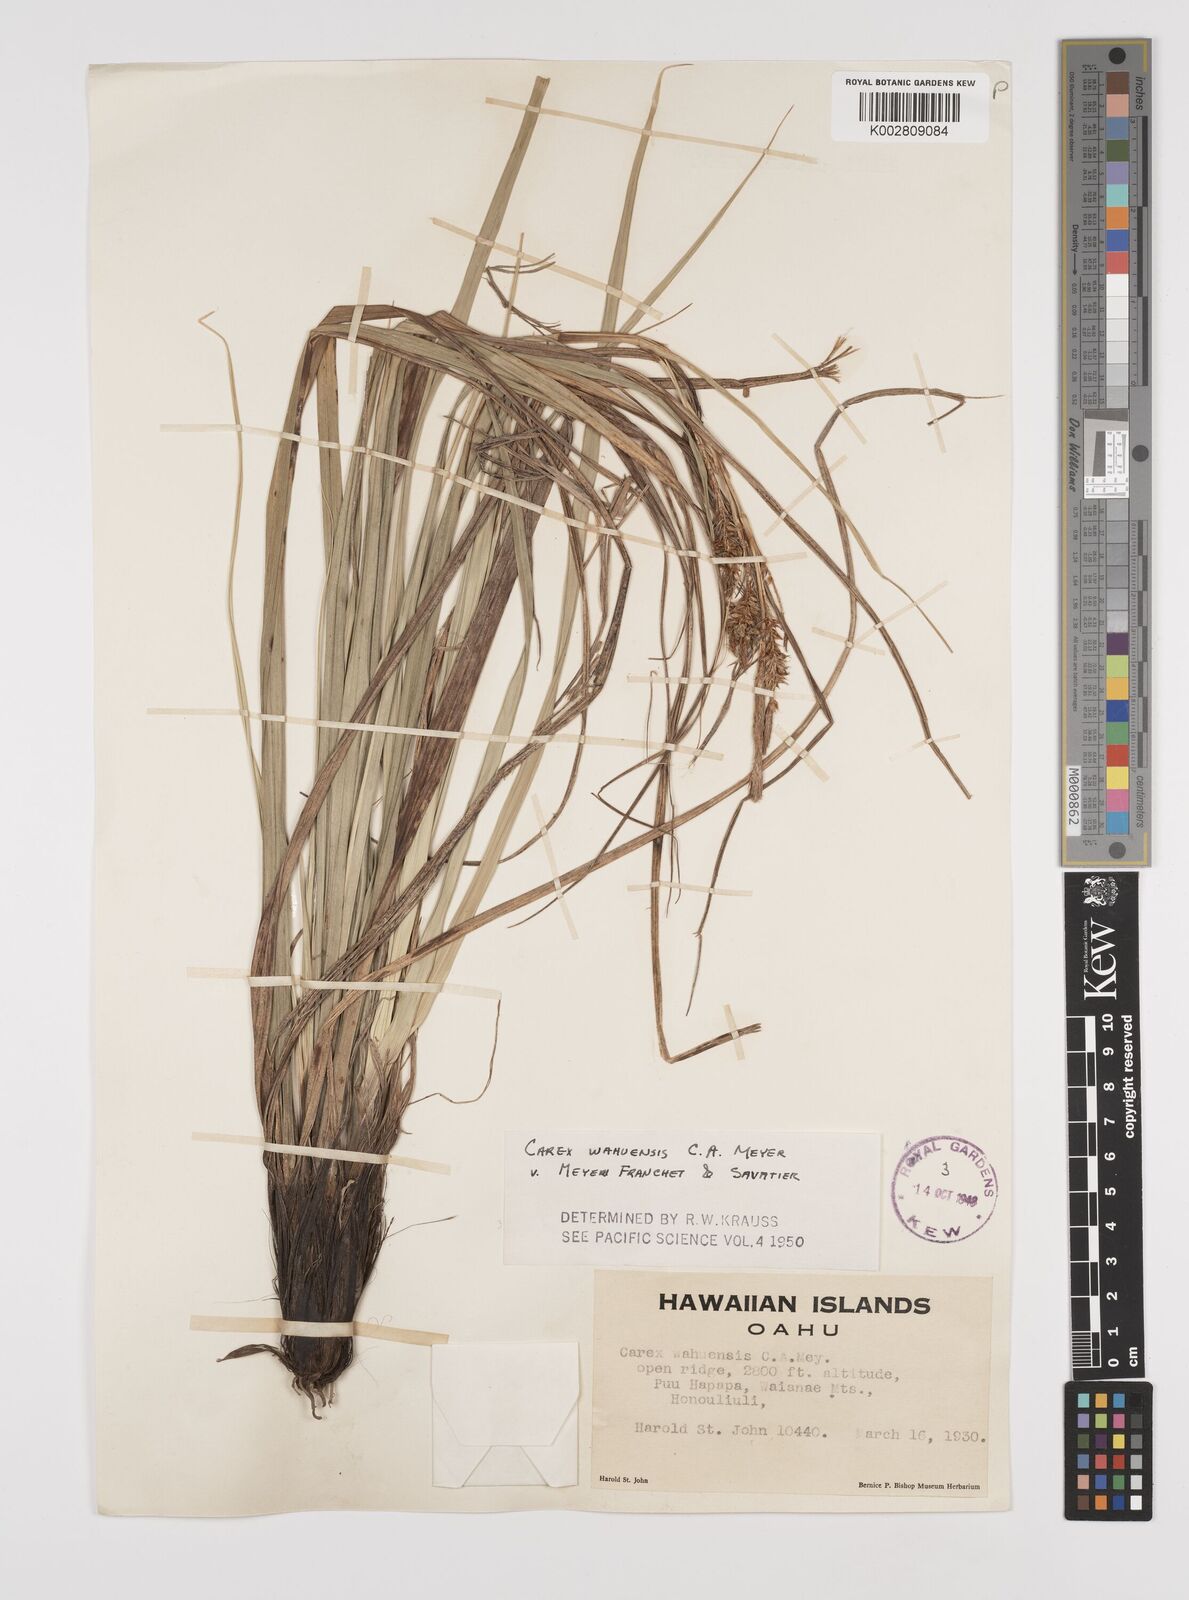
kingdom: Plantae
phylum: Tracheophyta
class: Liliopsida
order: Poales
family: Cyperaceae
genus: Carex
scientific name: Carex wahuensis
